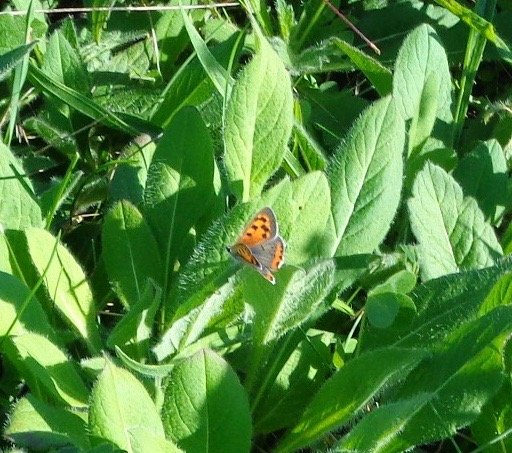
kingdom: Animalia
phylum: Arthropoda
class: Insecta
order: Lepidoptera
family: Lycaenidae
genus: Lycaena
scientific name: Lycaena phlaeas
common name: American Copper
